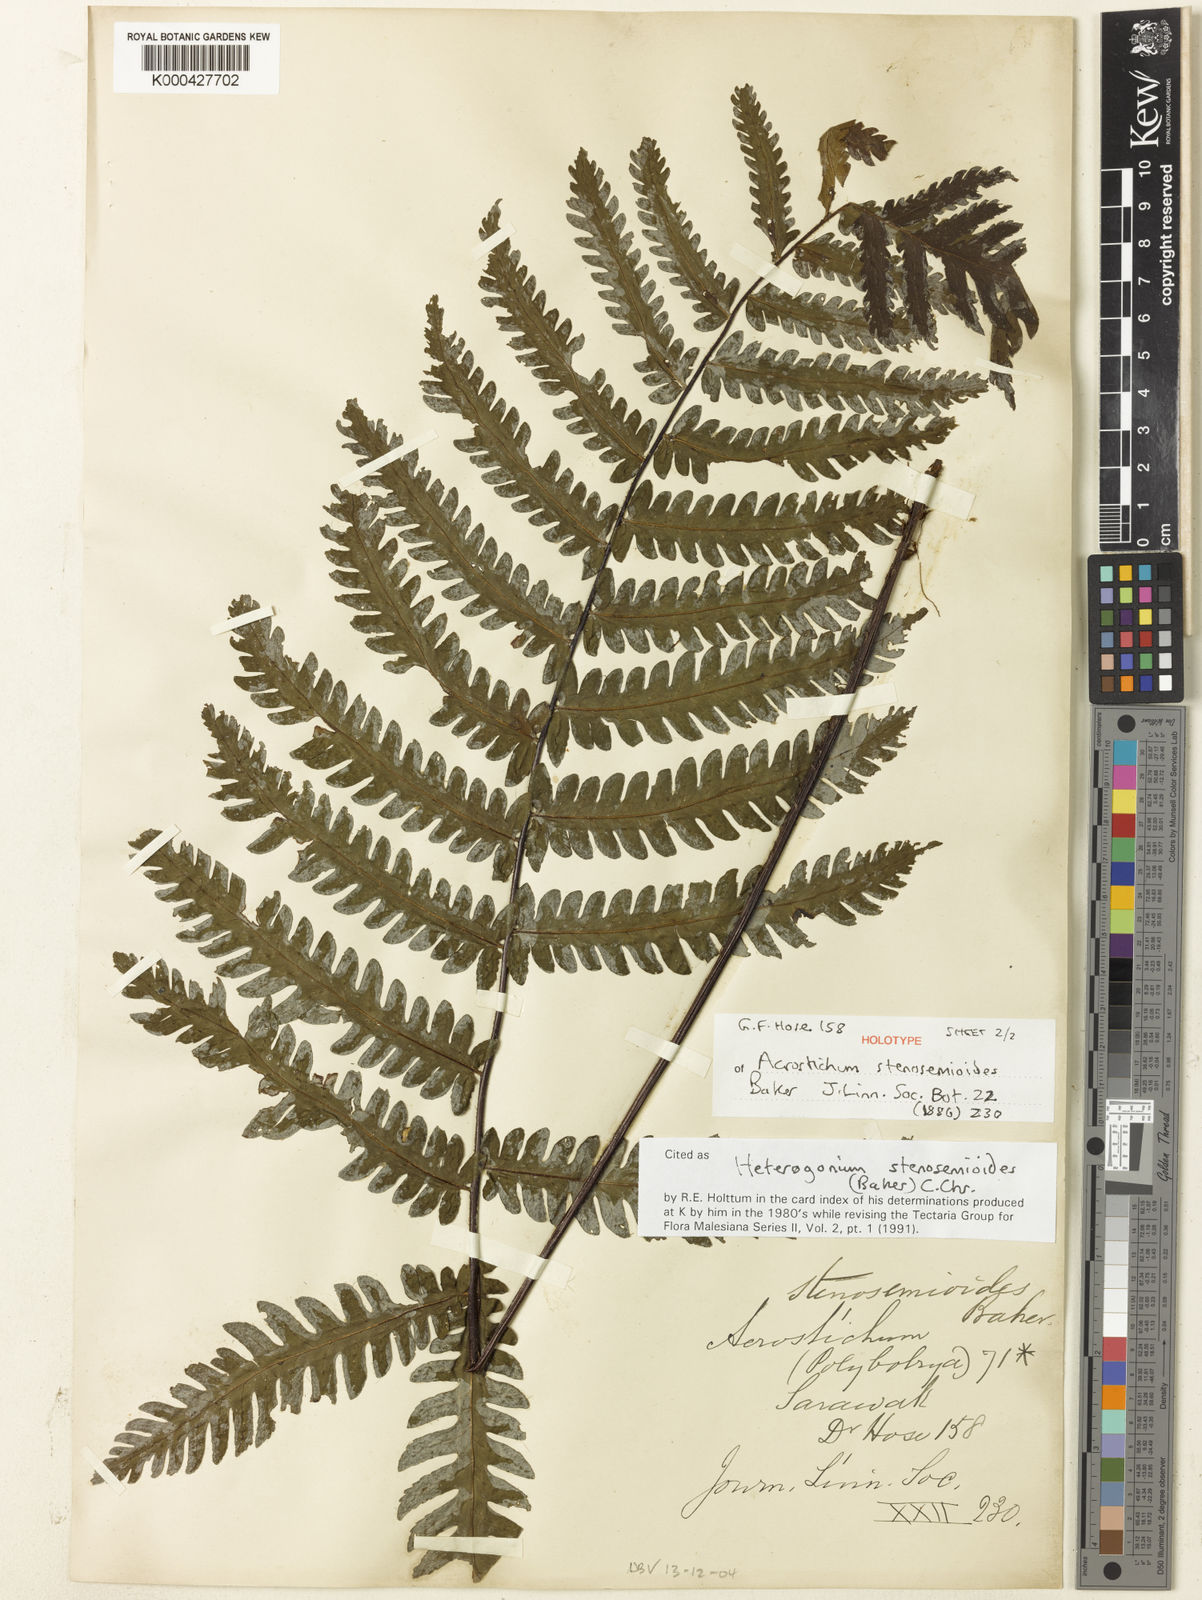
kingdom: Plantae
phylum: Tracheophyta
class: Polypodiopsida
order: Polypodiales
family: Tectariaceae
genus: Tectaria
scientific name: Tectaria borneensis
